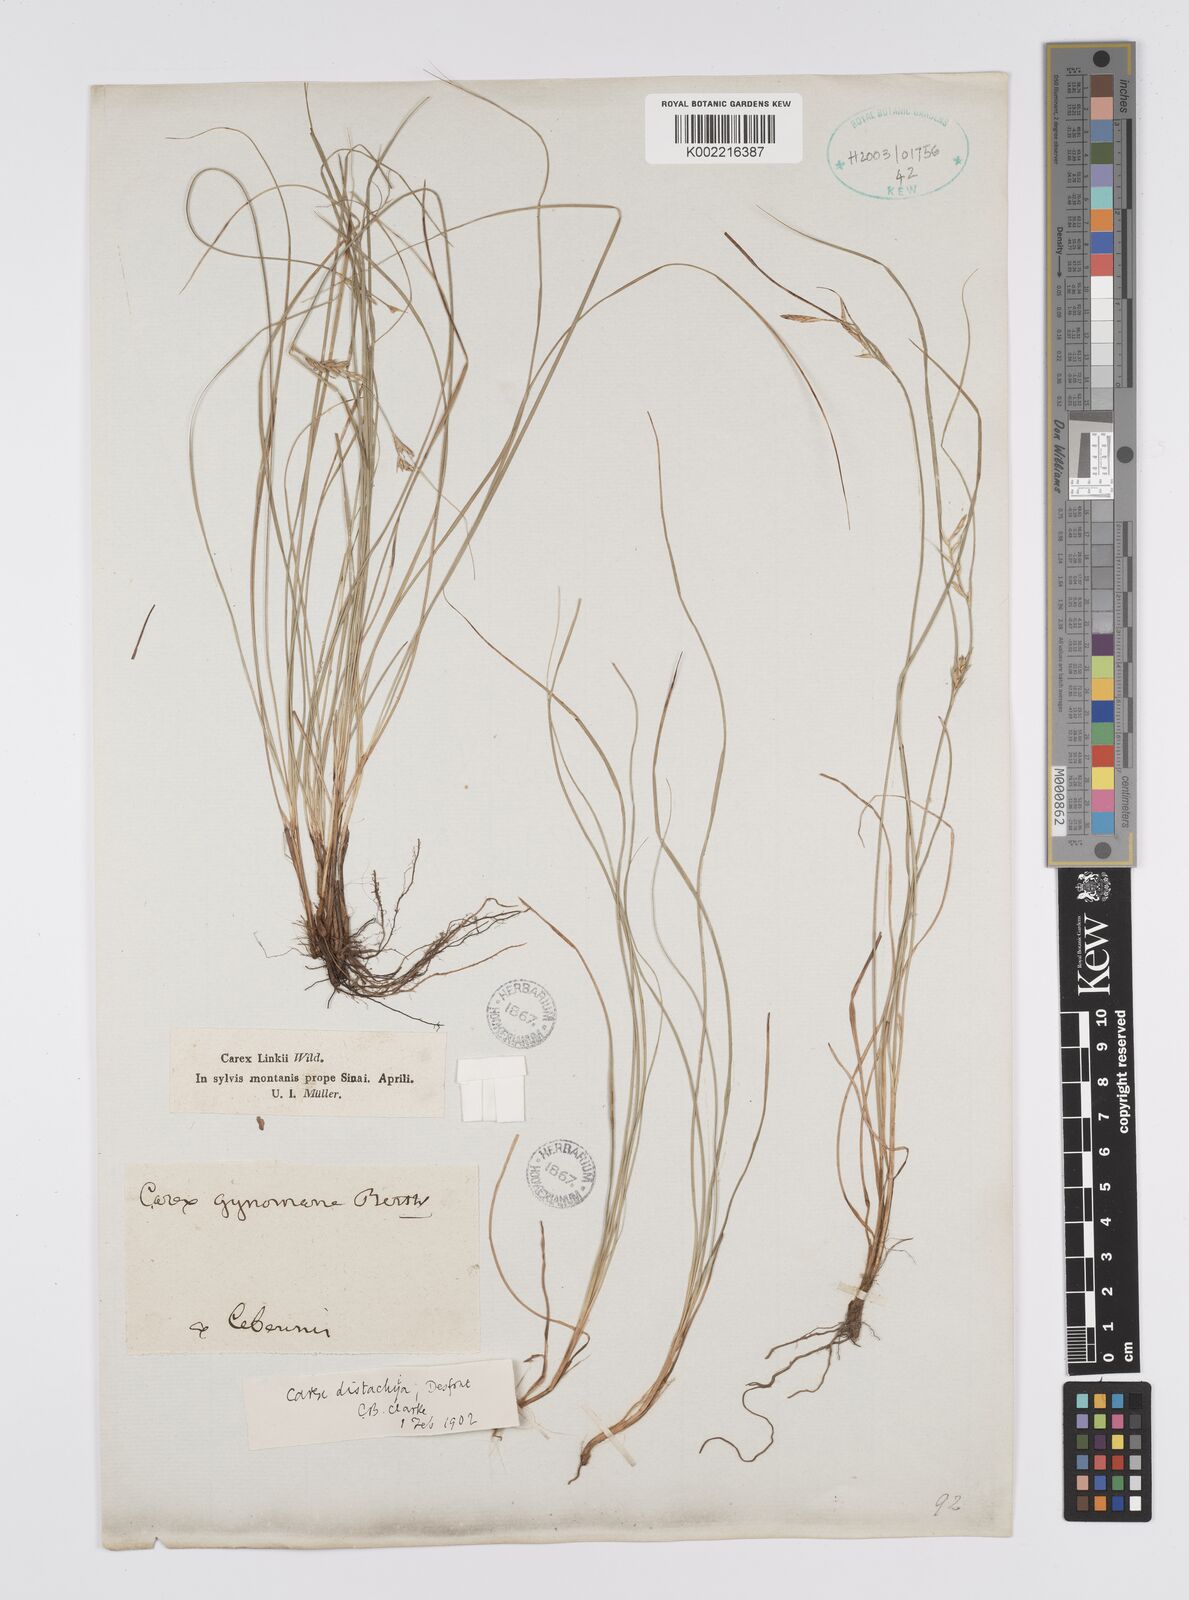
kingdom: Plantae
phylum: Tracheophyta
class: Liliopsida
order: Poales
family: Cyperaceae
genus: Carex
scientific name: Carex distachya
